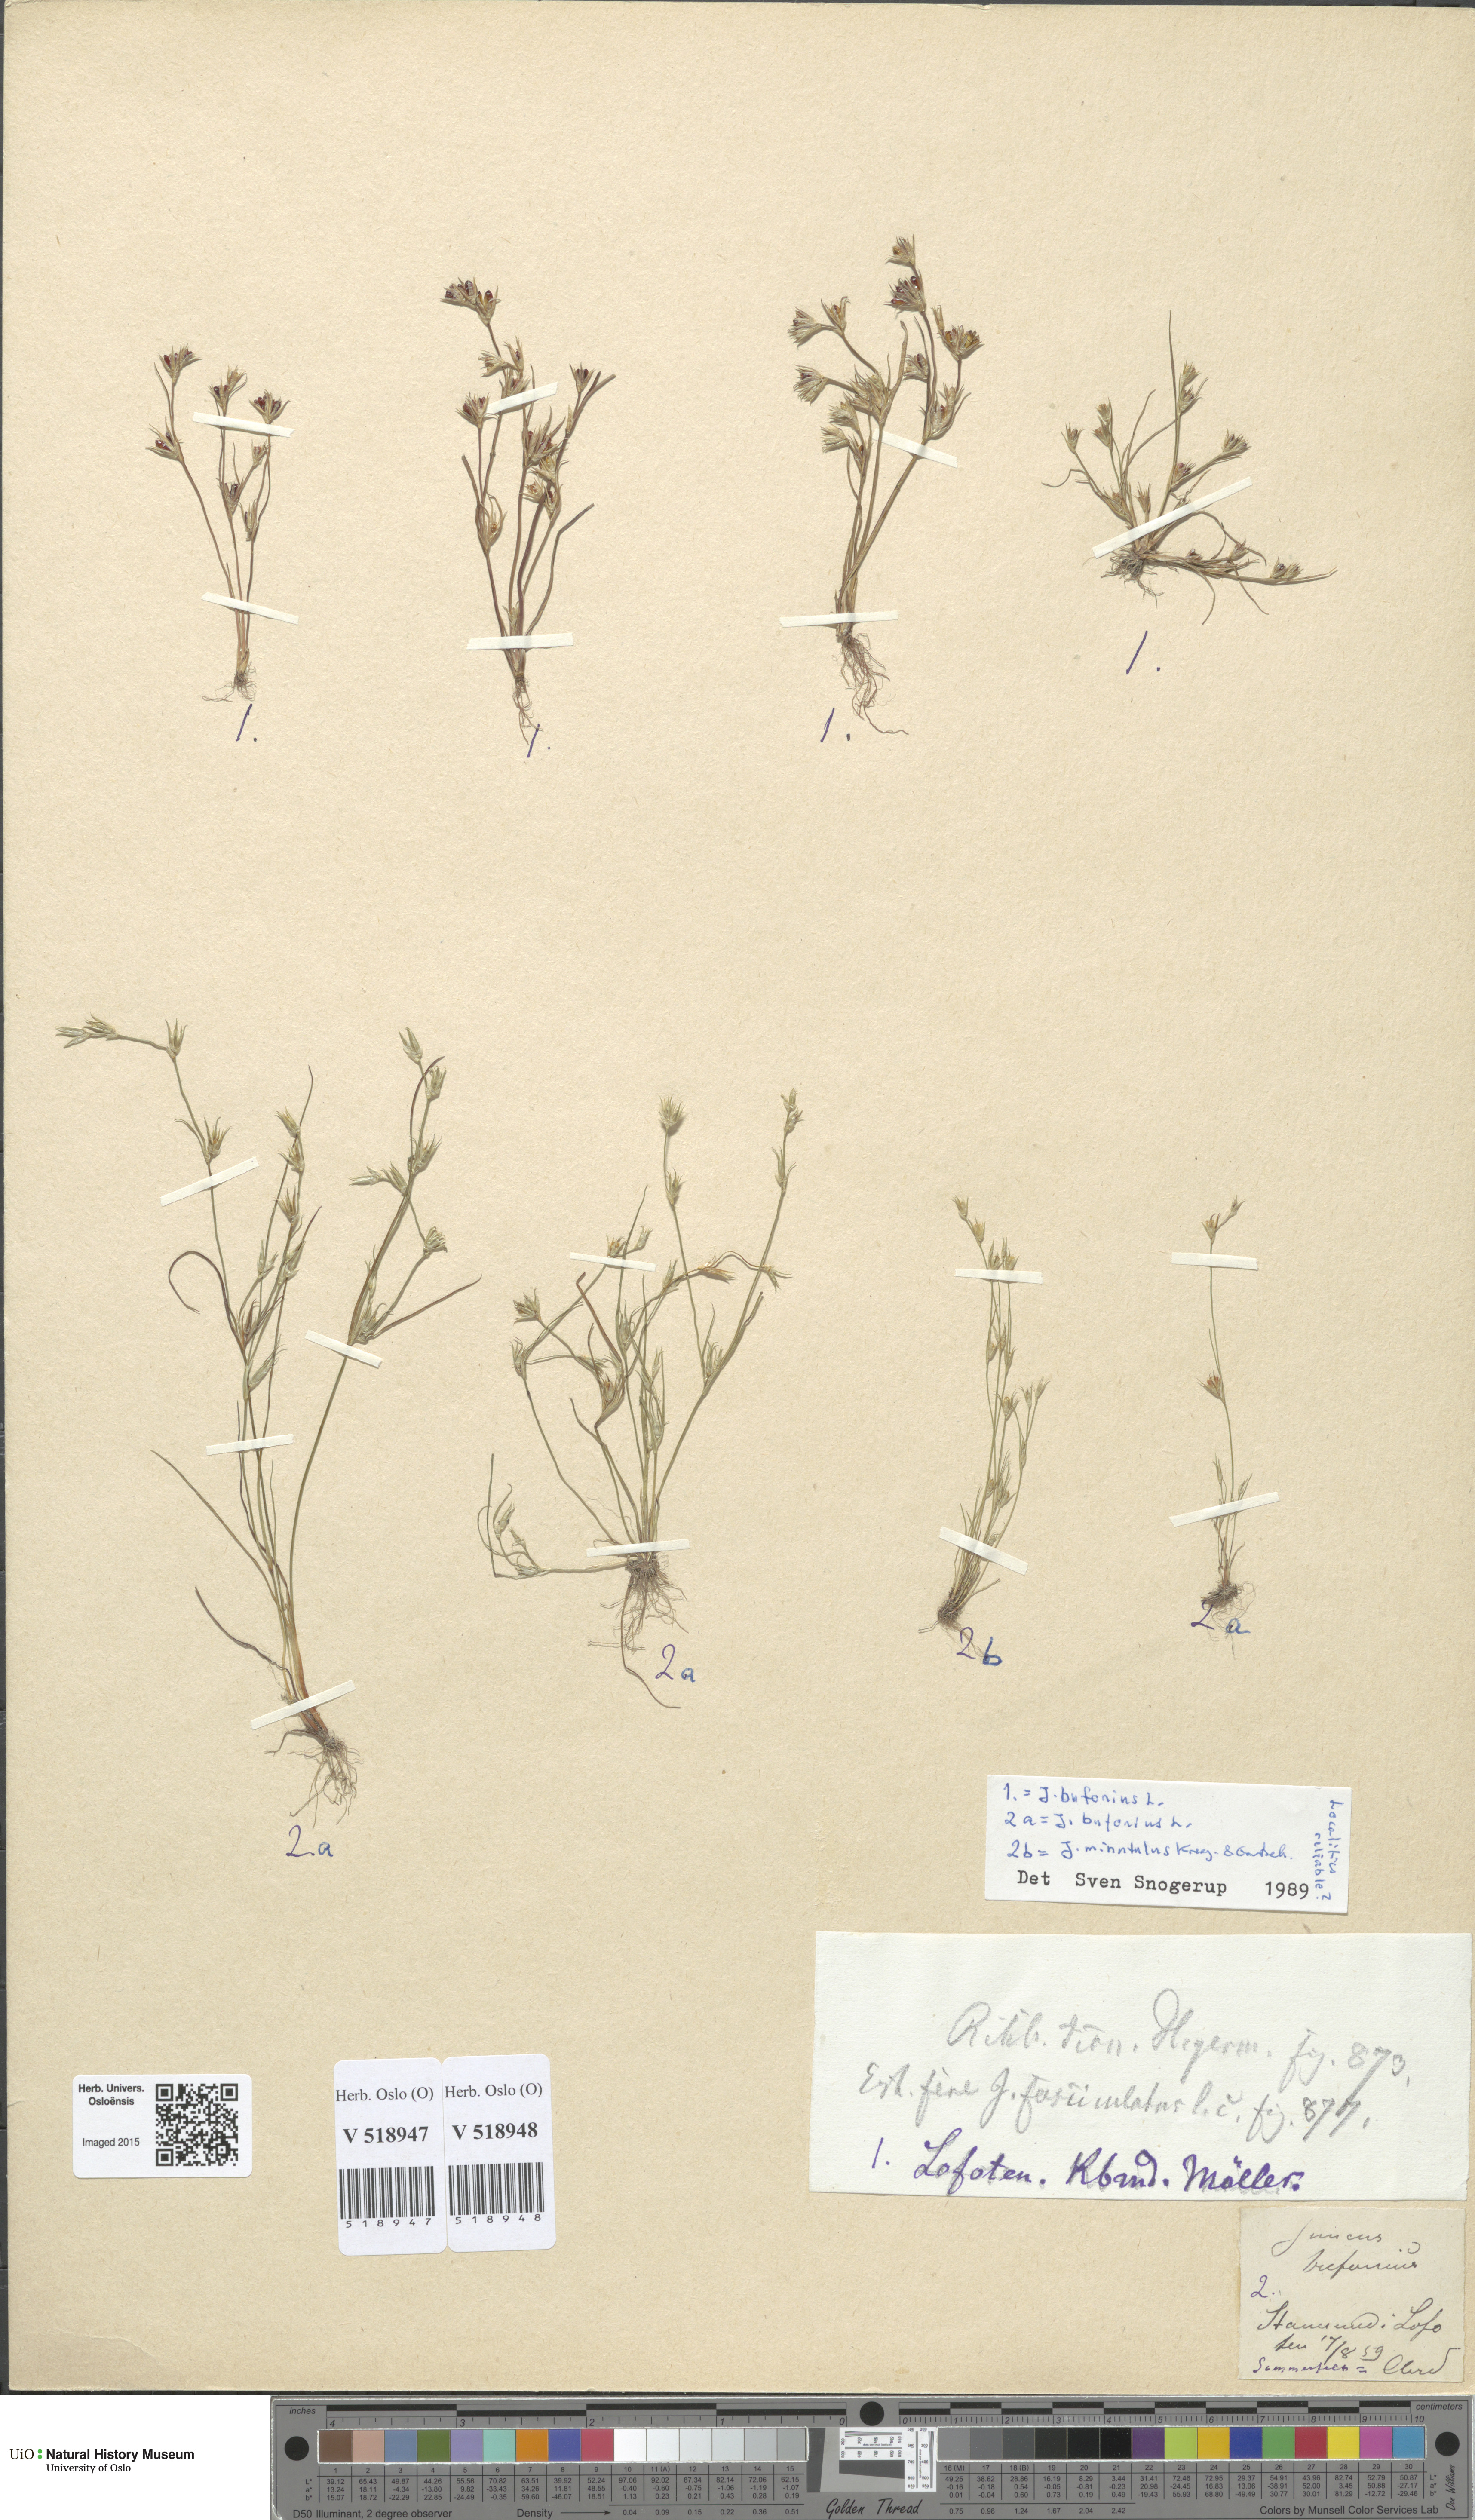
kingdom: Plantae
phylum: Tracheophyta
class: Liliopsida
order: Poales
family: Juncaceae
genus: Juncus
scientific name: Juncus minutulus
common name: Minute rush
